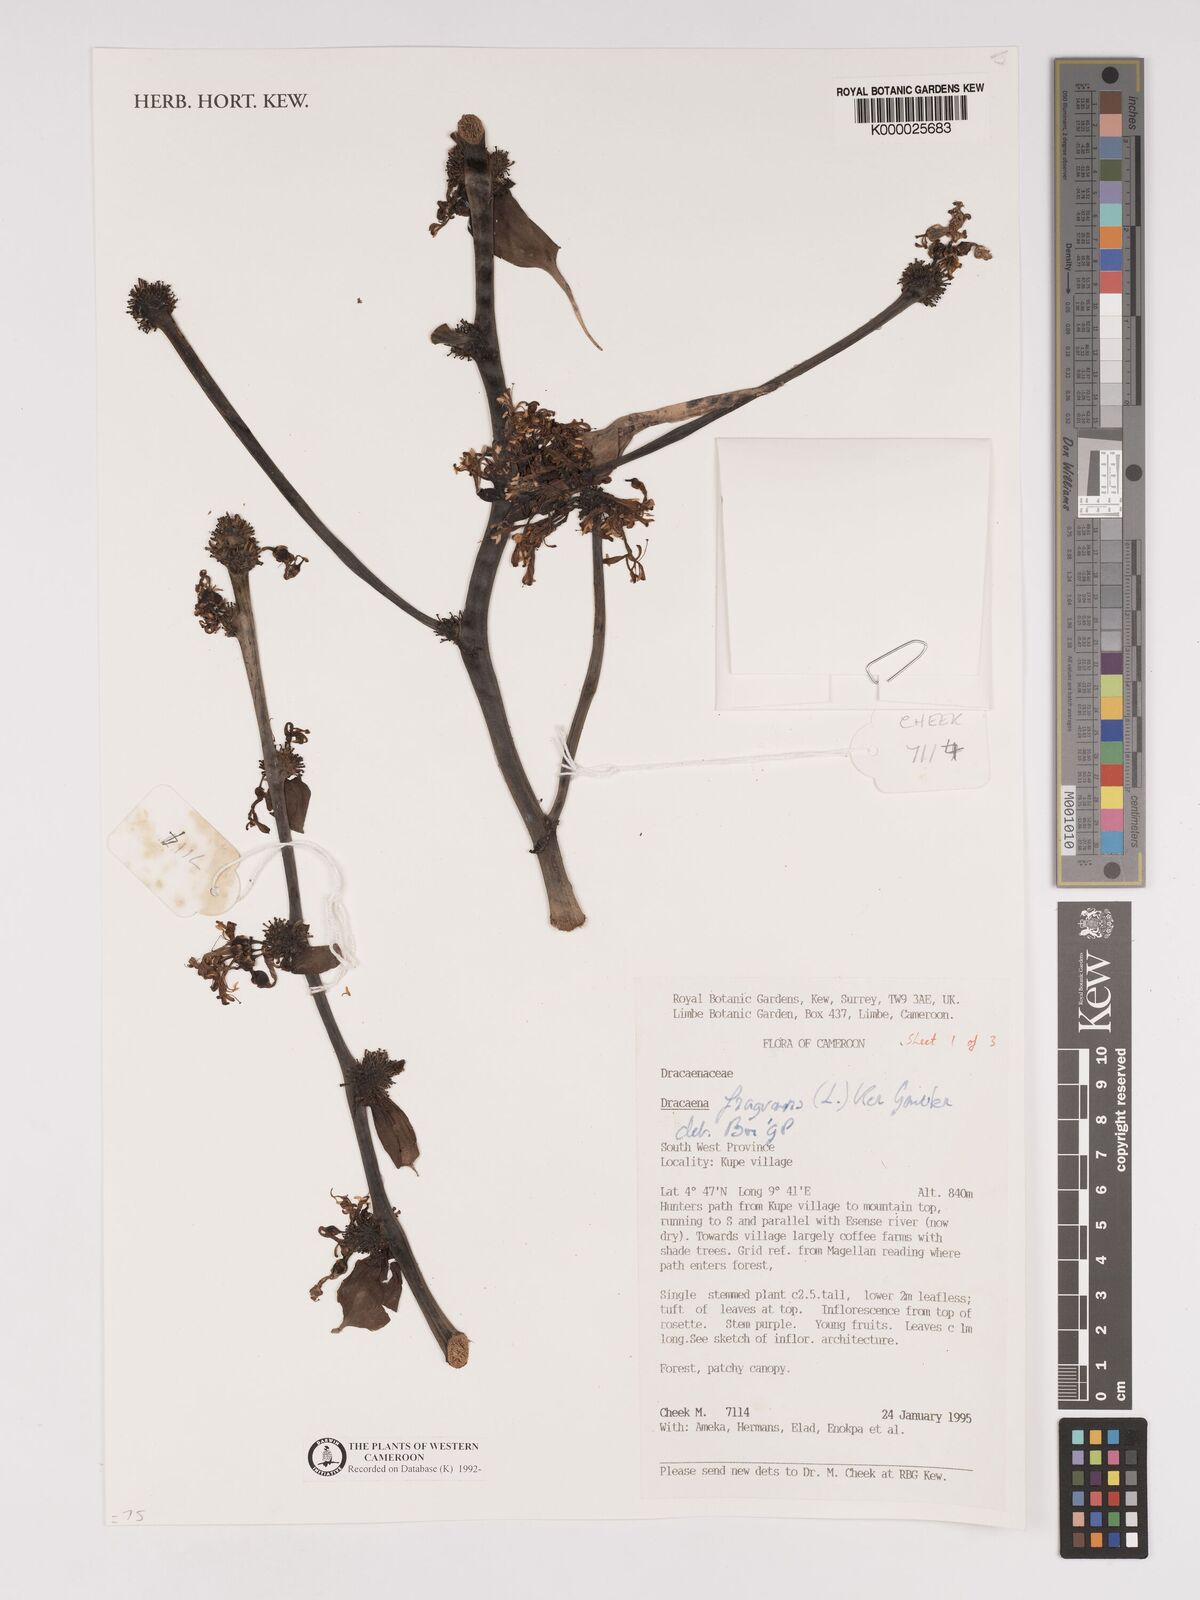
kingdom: Plantae
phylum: Tracheophyta
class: Liliopsida
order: Asparagales
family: Asparagaceae
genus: Dracaena
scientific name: Dracaena fragrans
